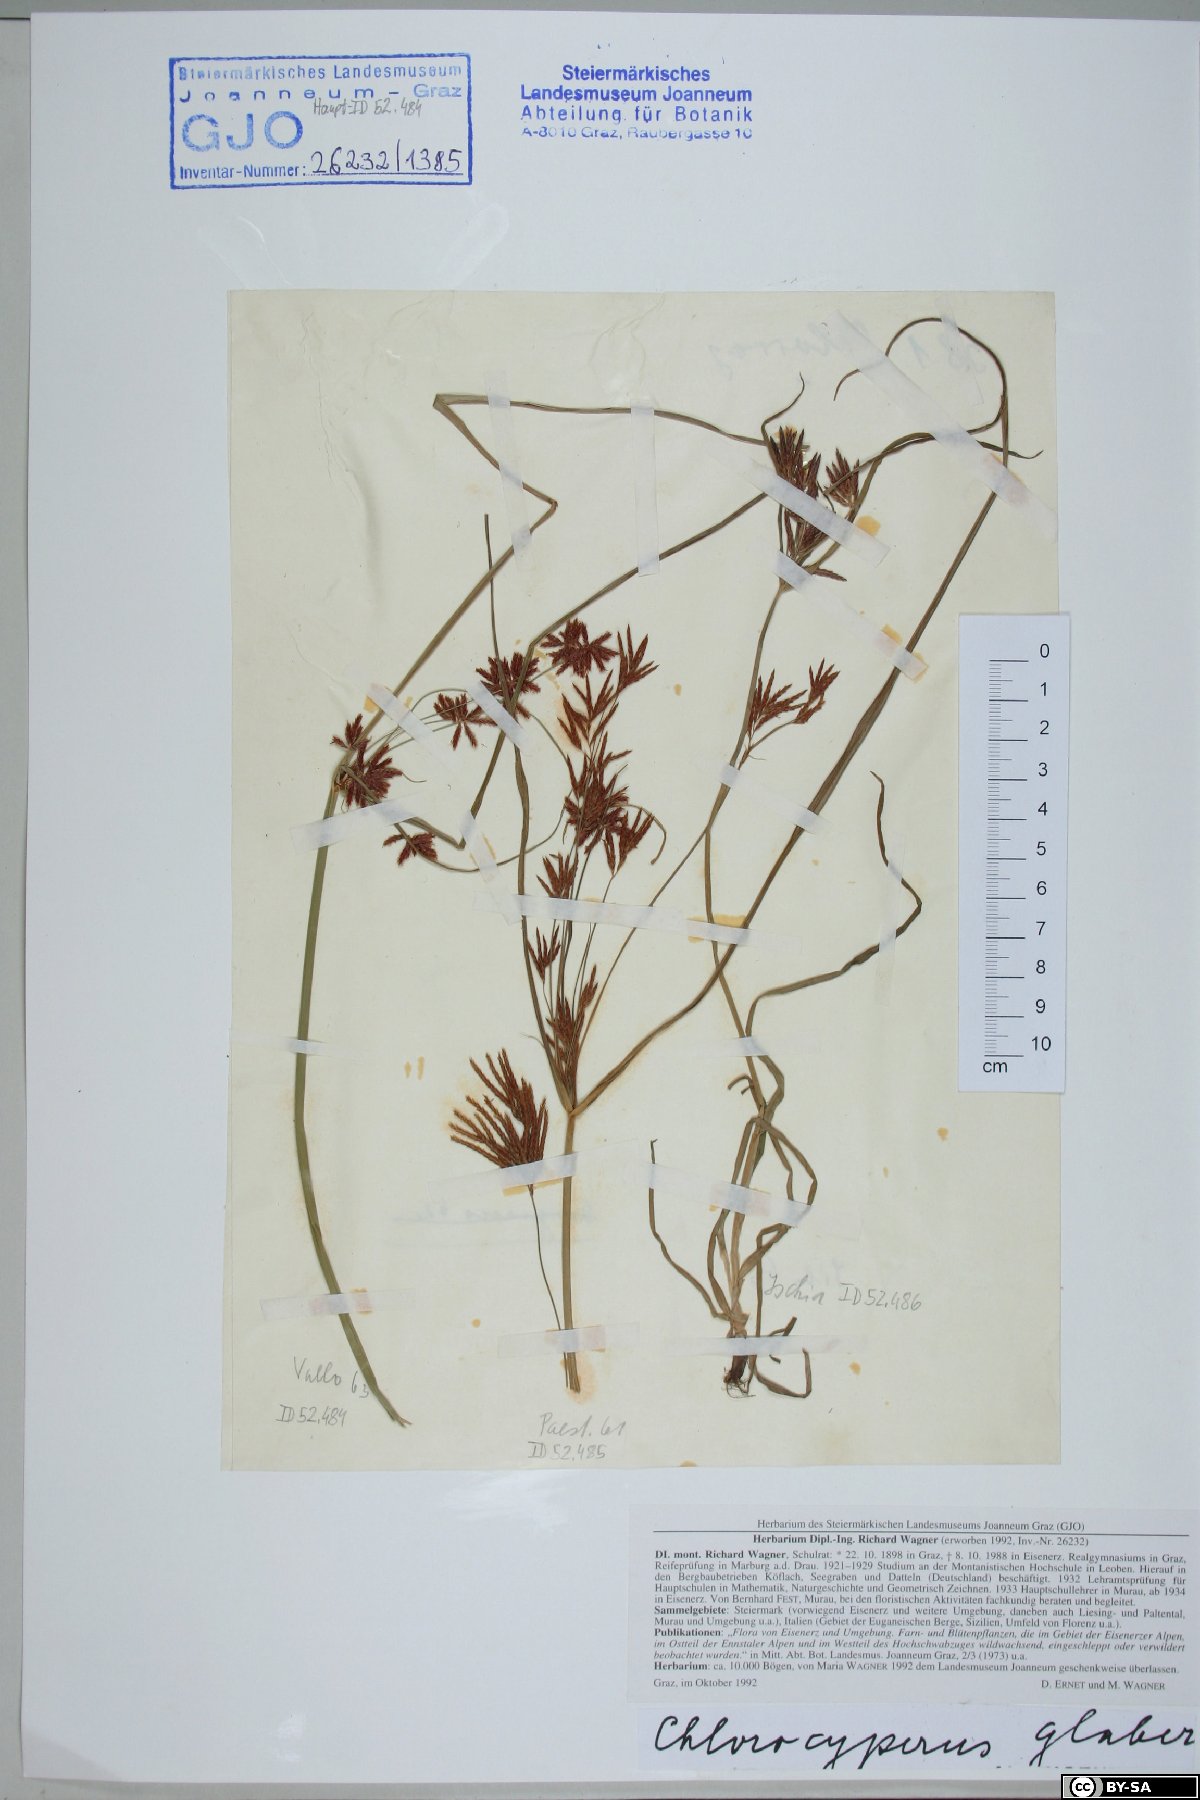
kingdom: Plantae
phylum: Tracheophyta
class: Liliopsida
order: Poales
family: Cyperaceae
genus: Cyperus
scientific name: Cyperus glaber
